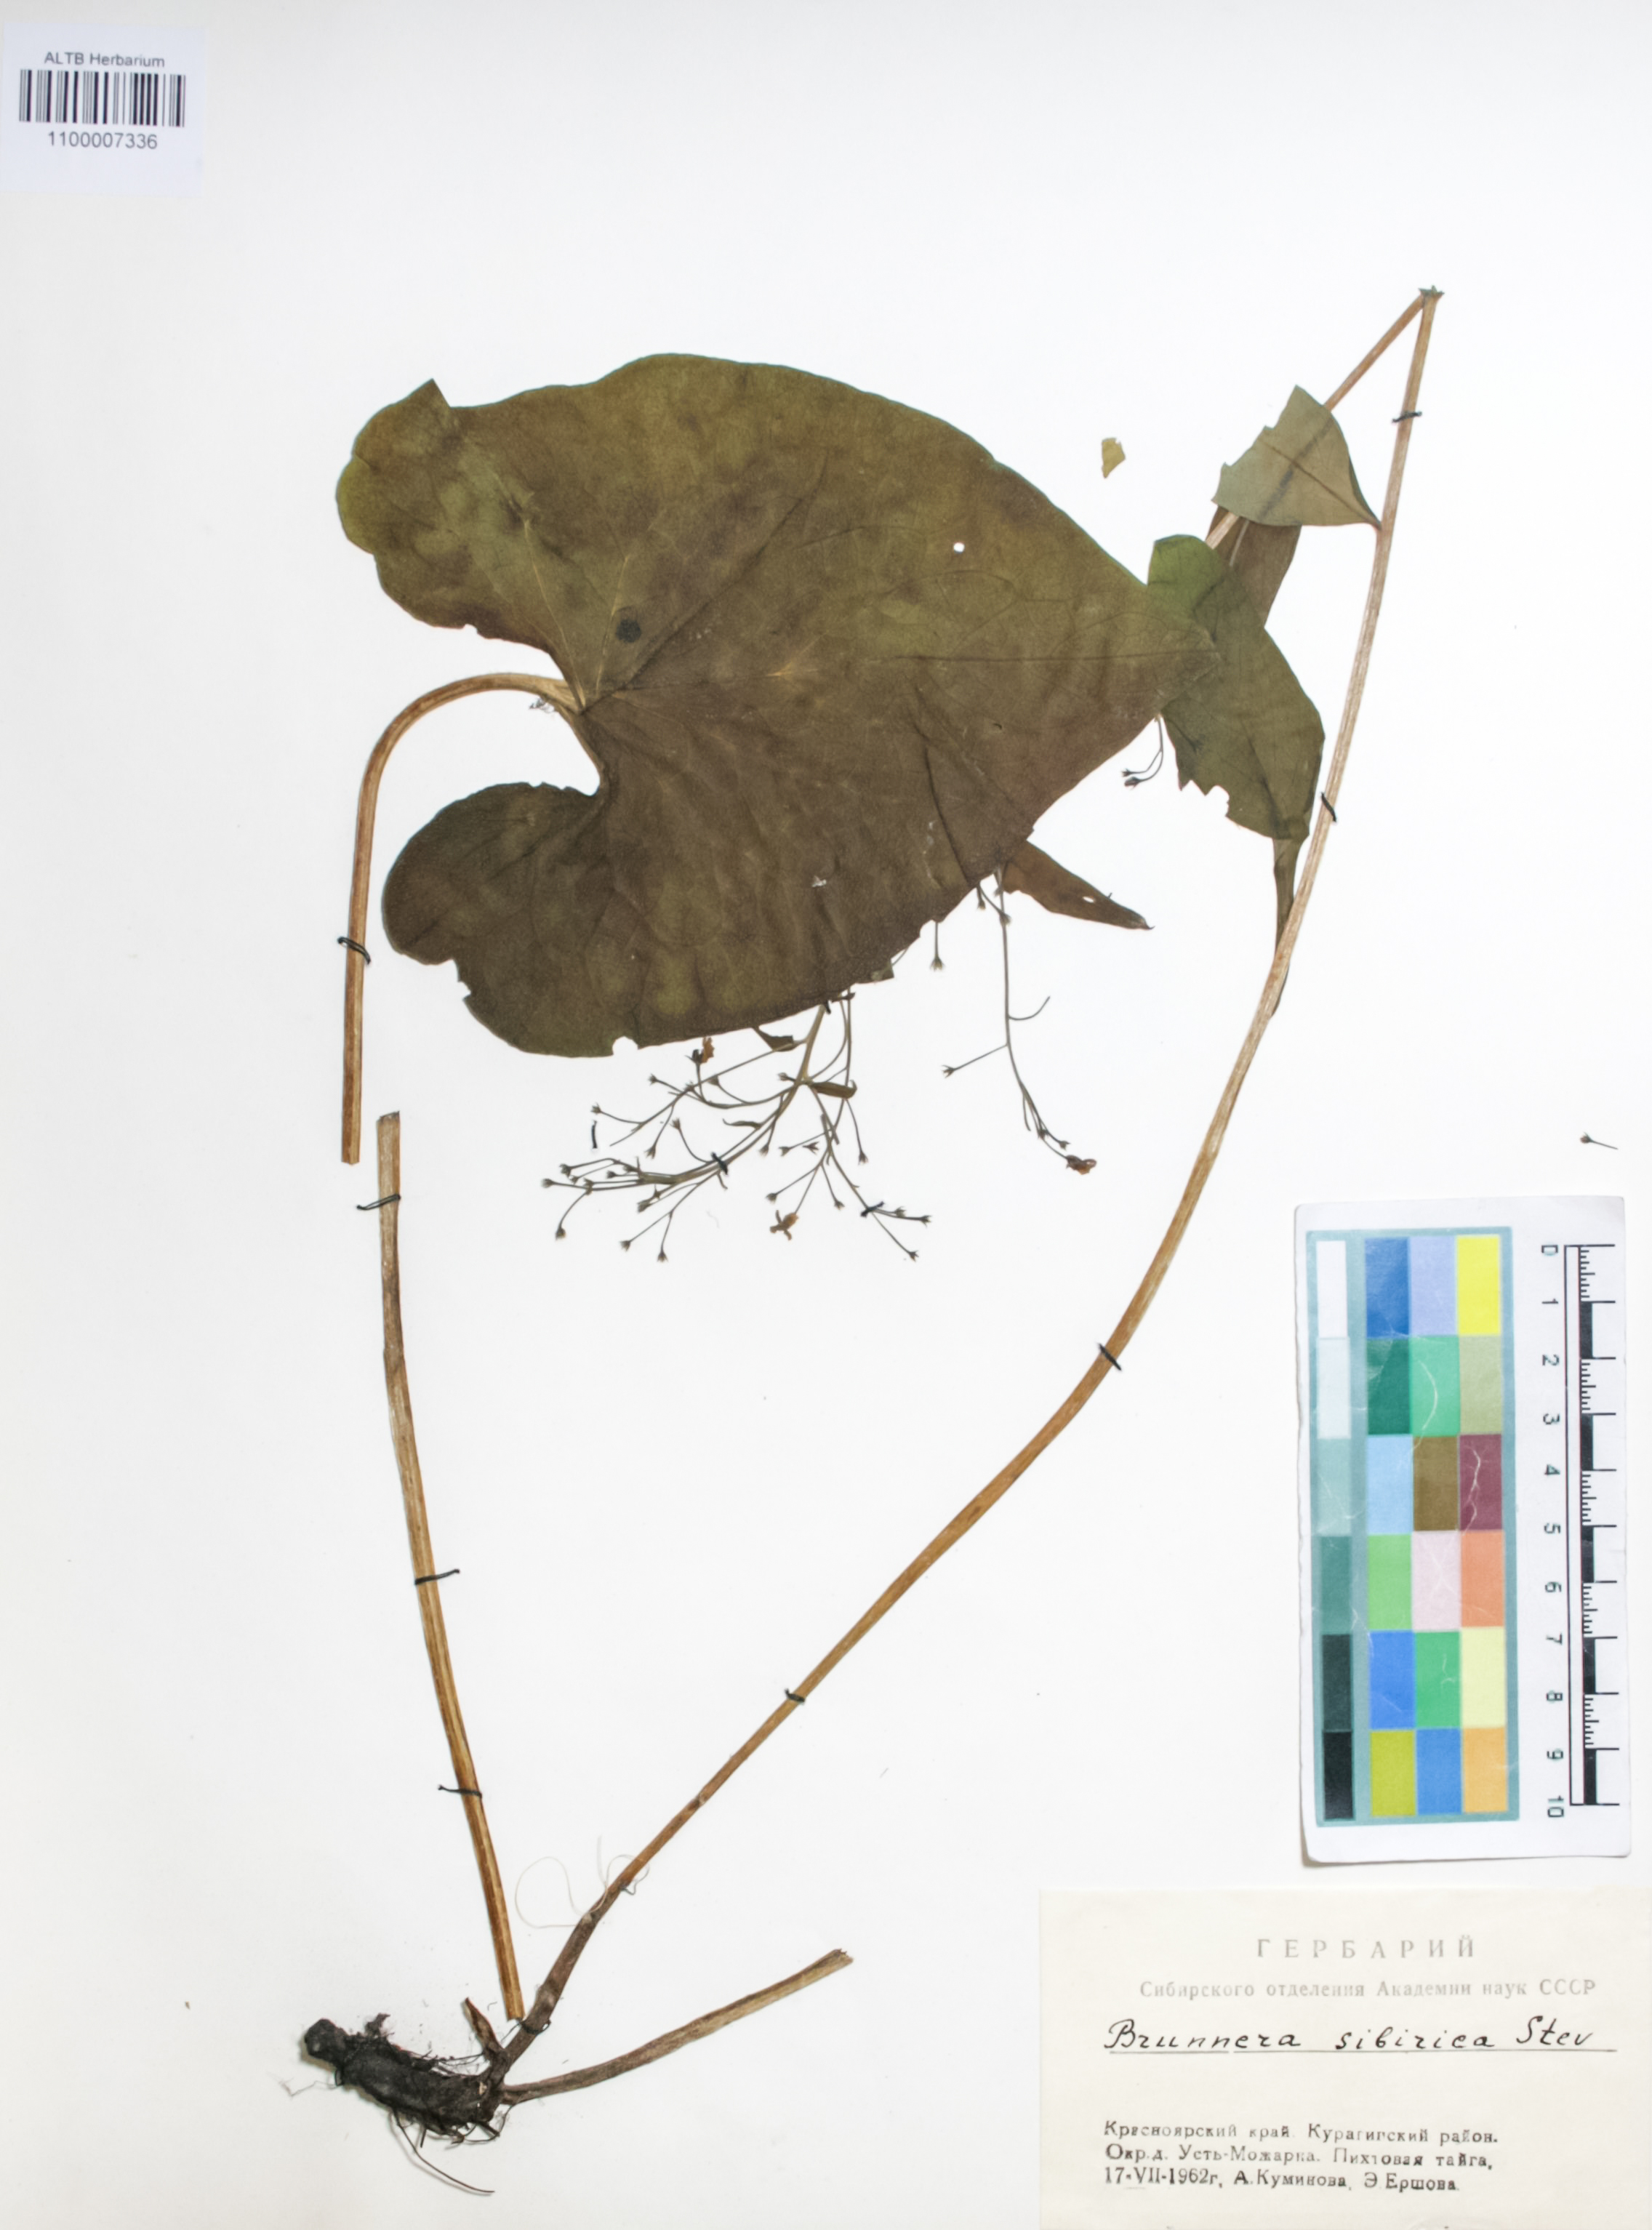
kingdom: Plantae
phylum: Tracheophyta
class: Magnoliopsida
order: Boraginales
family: Boraginaceae
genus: Brunnera
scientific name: Brunnera sibirica
